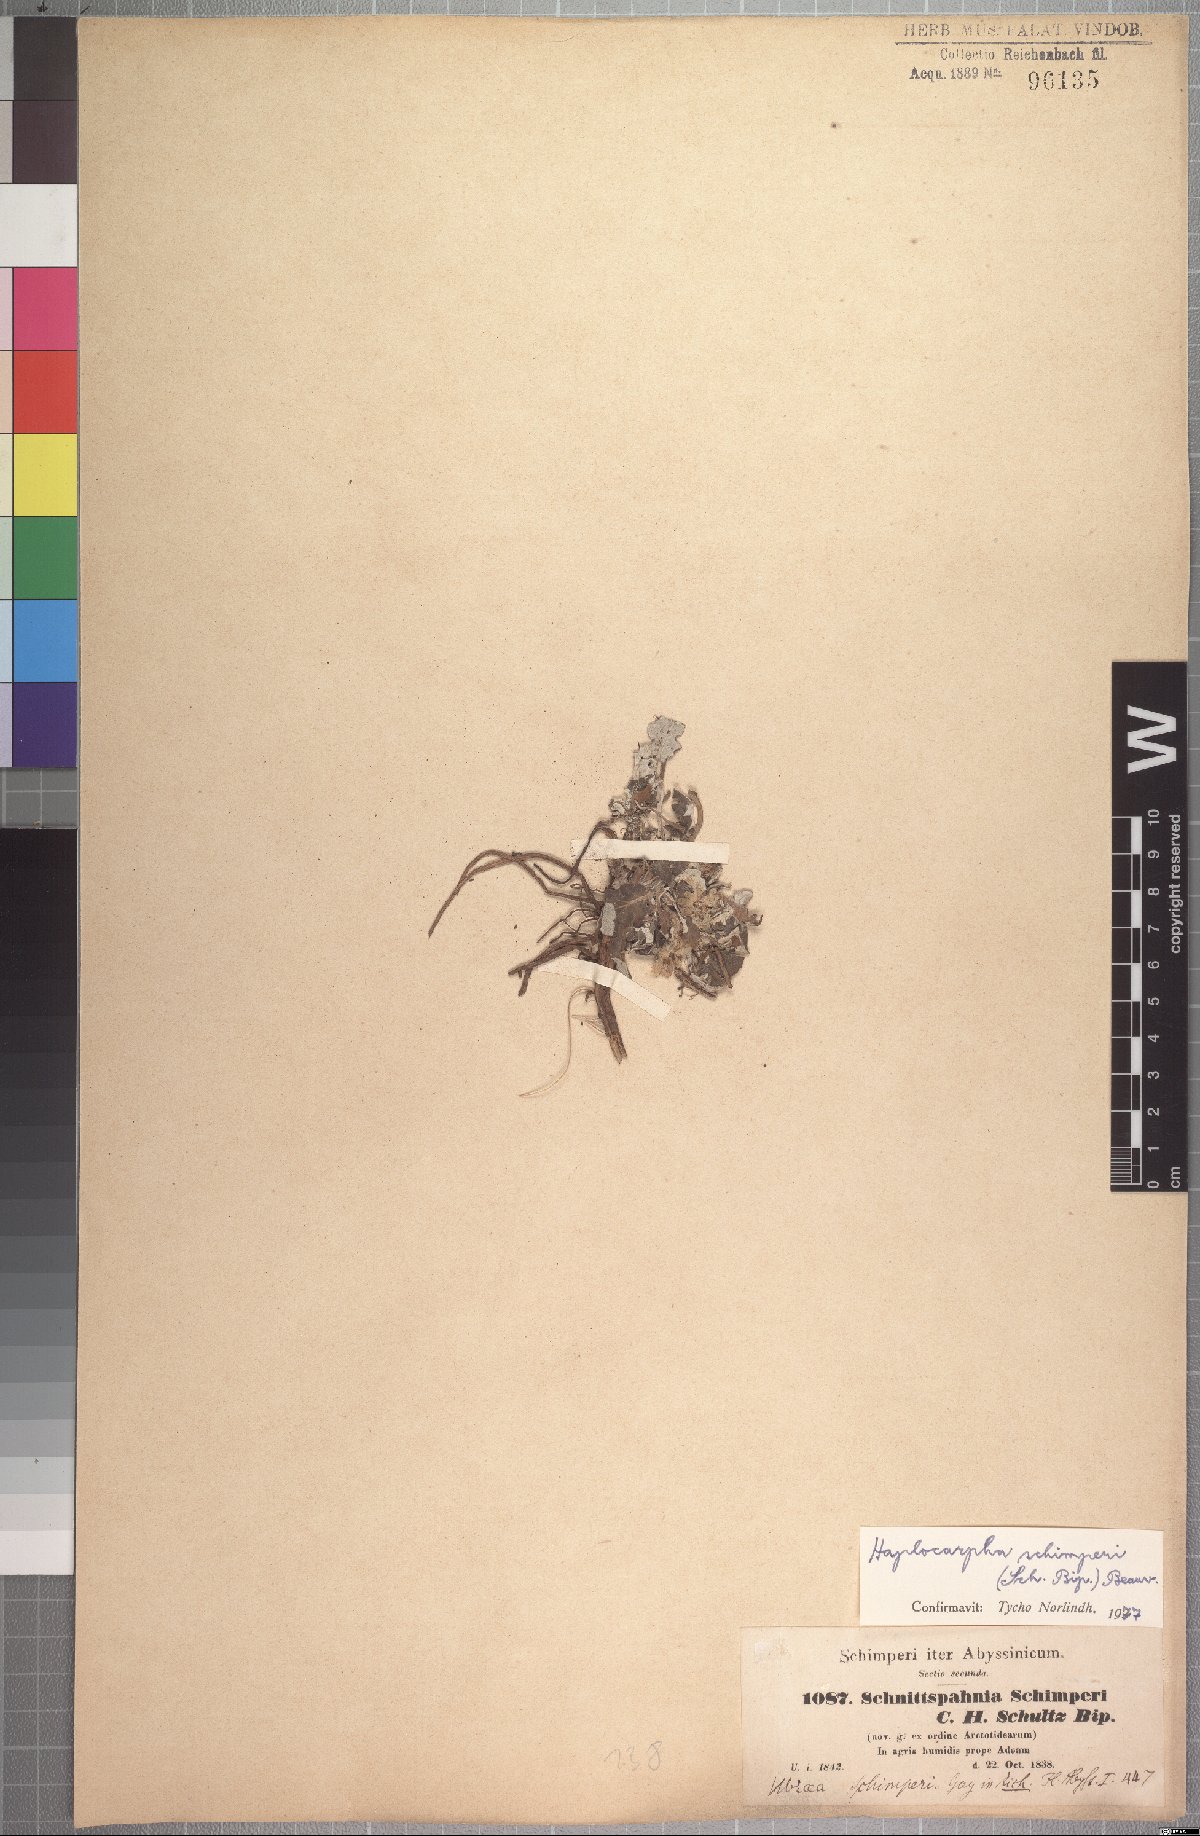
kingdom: Plantae
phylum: Tracheophyta
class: Magnoliopsida
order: Asterales
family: Asteraceae
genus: Haplocarpha
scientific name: Haplocarpha schimperi
